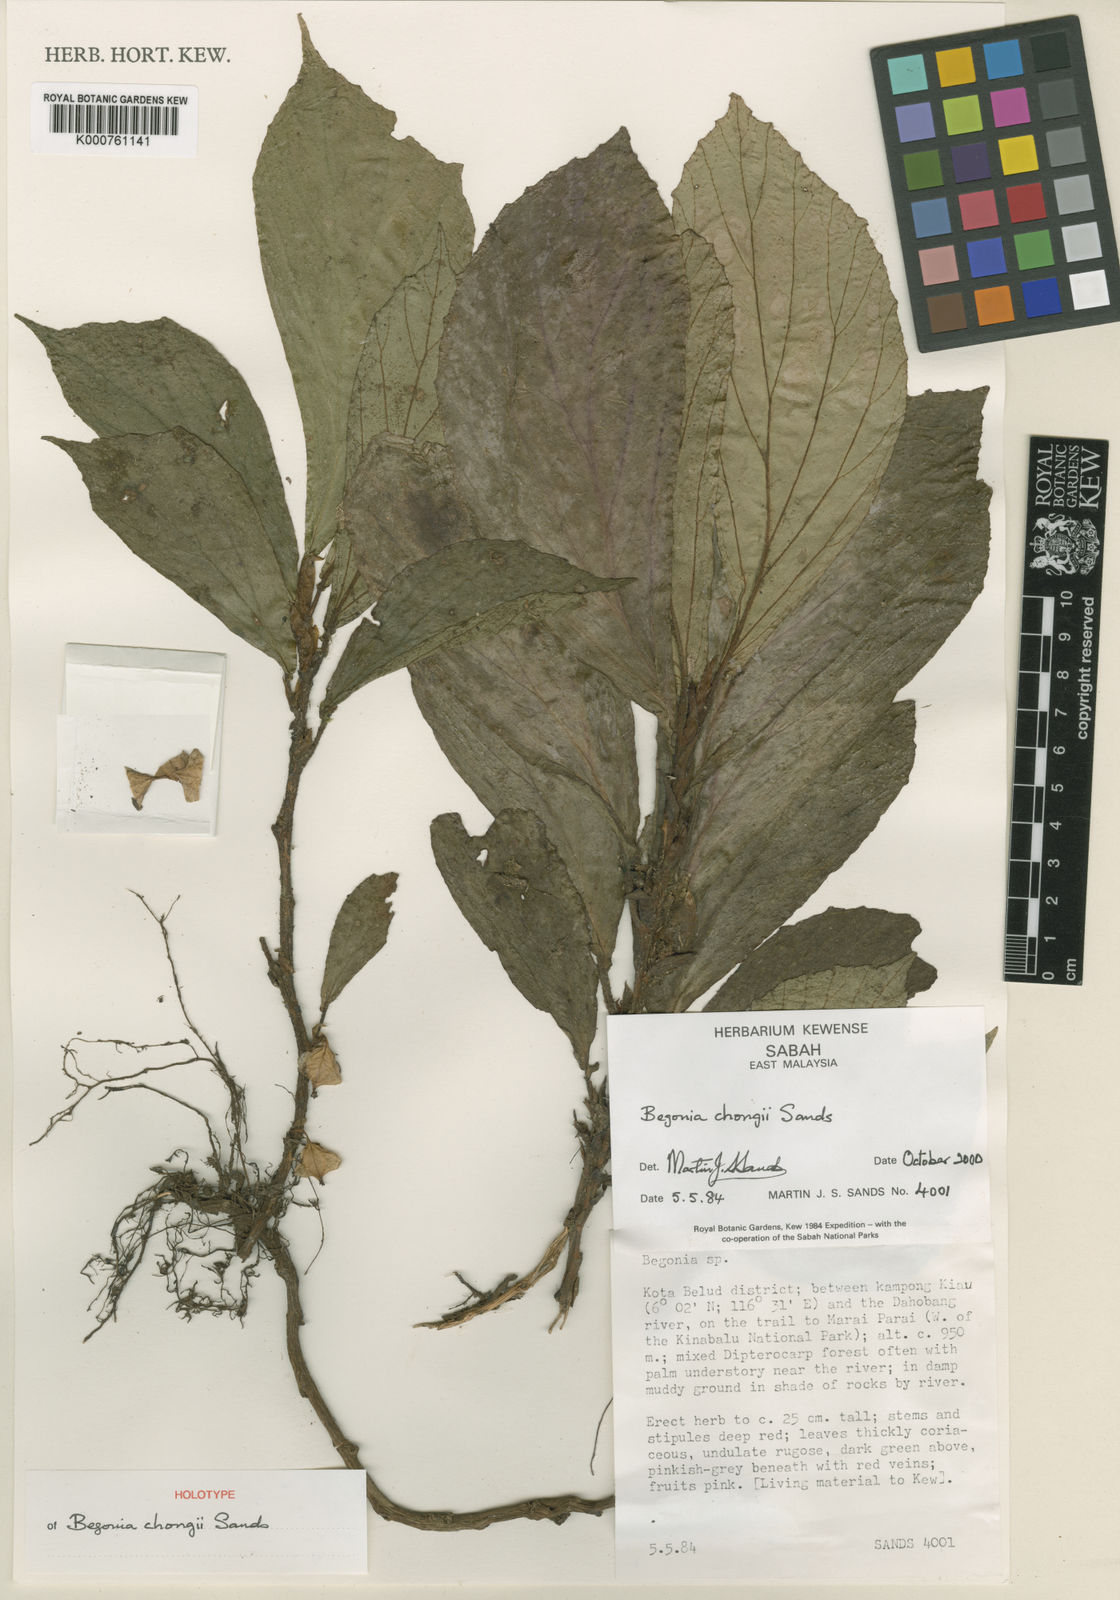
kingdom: Plantae
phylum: Tracheophyta
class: Magnoliopsida
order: Cucurbitales
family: Begoniaceae
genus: Begonia
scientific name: Begonia chongii
